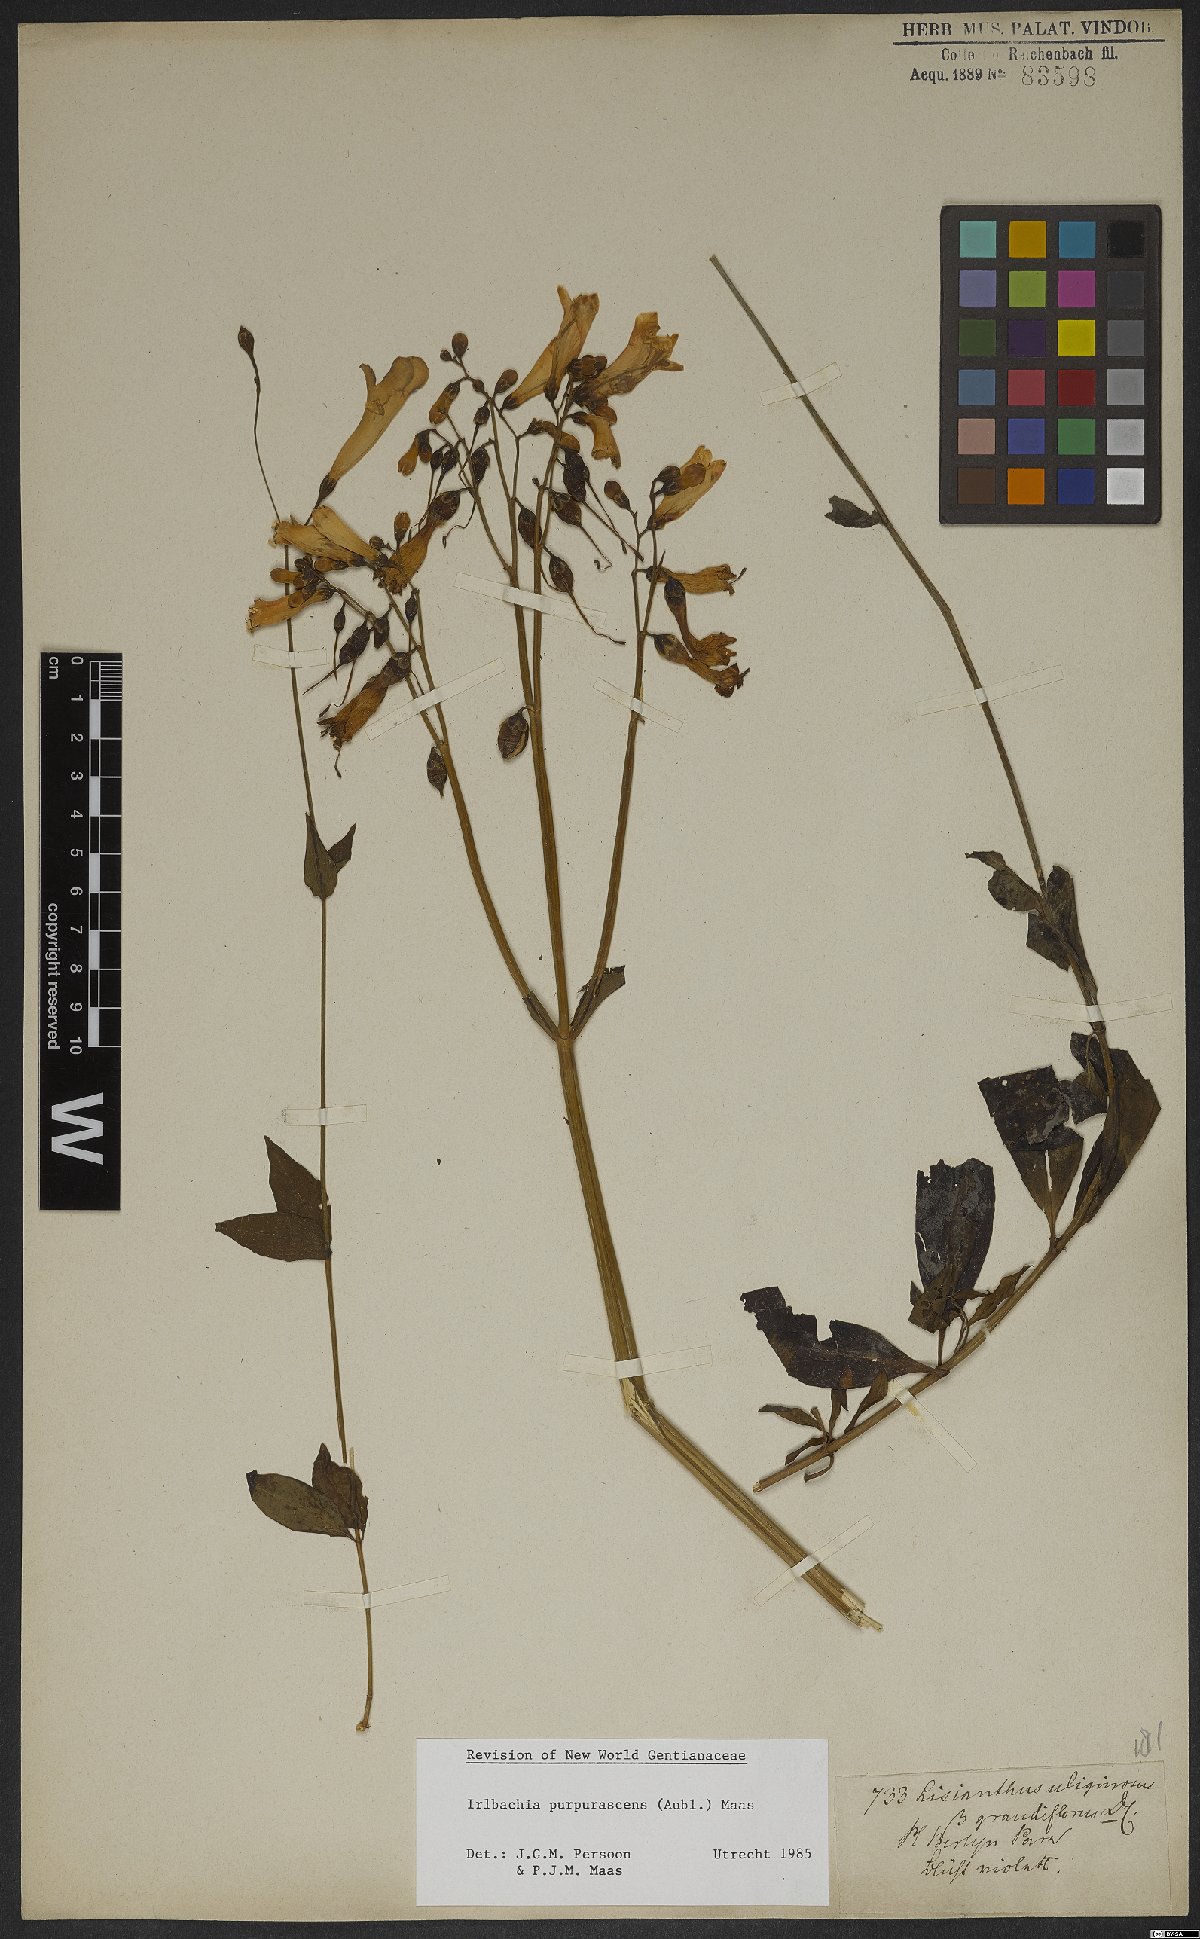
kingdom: Plantae
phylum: Tracheophyta
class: Magnoliopsida
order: Gentianales
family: Gentianaceae
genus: Chelonanthus
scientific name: Chelonanthus purpurascens
